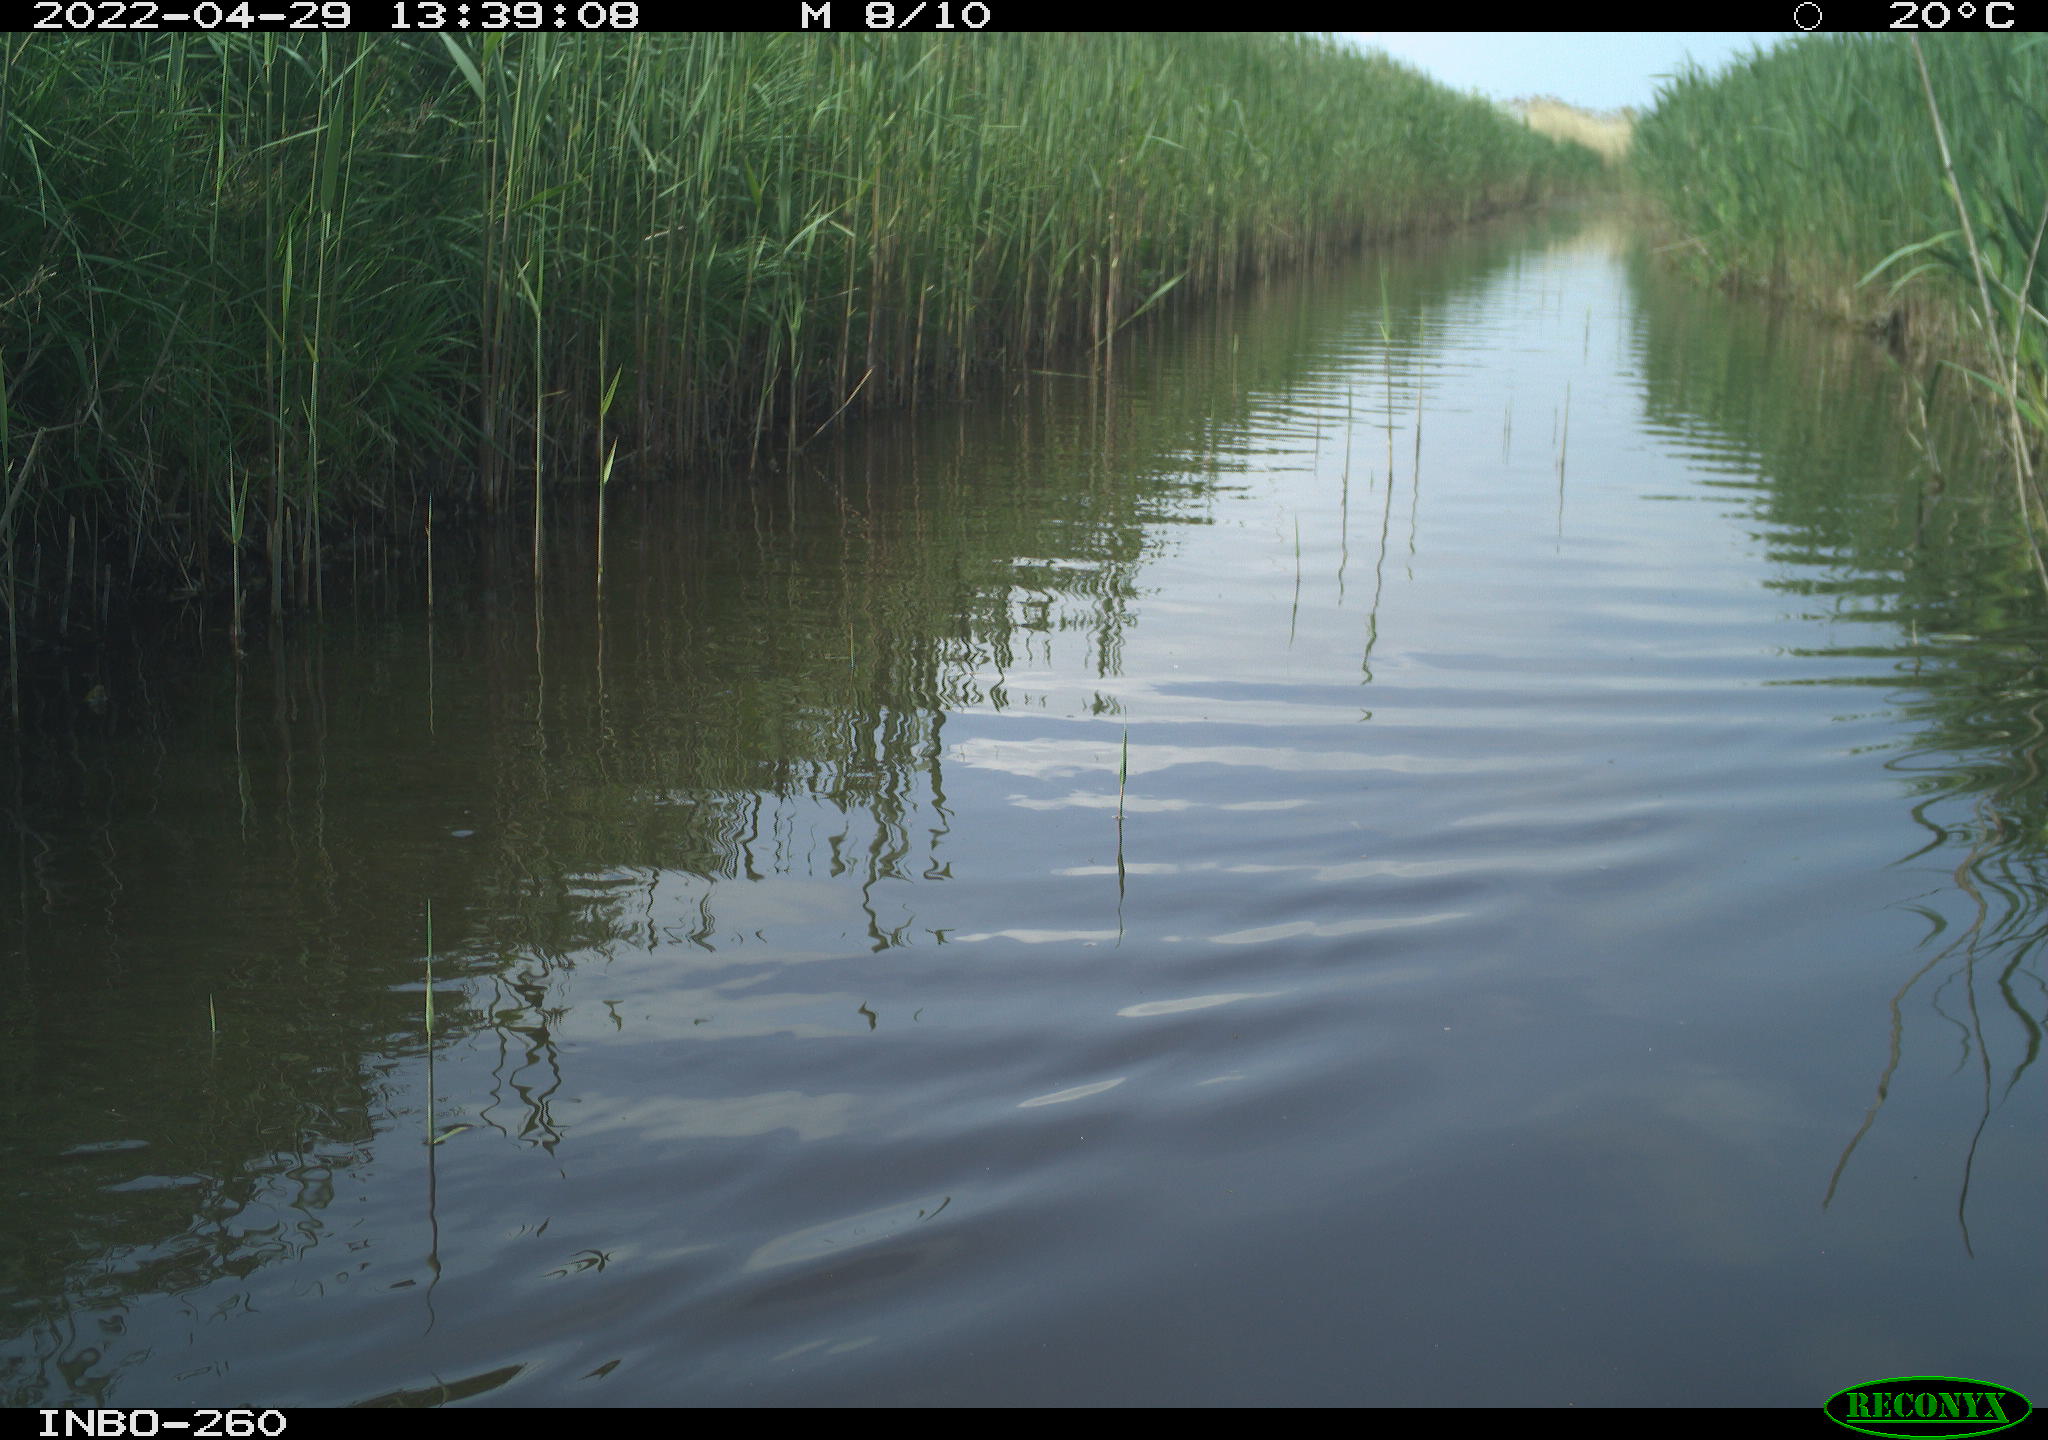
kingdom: Animalia
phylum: Chordata
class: Aves
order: Gruiformes
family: Rallidae
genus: Fulica
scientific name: Fulica atra
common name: Eurasian coot
